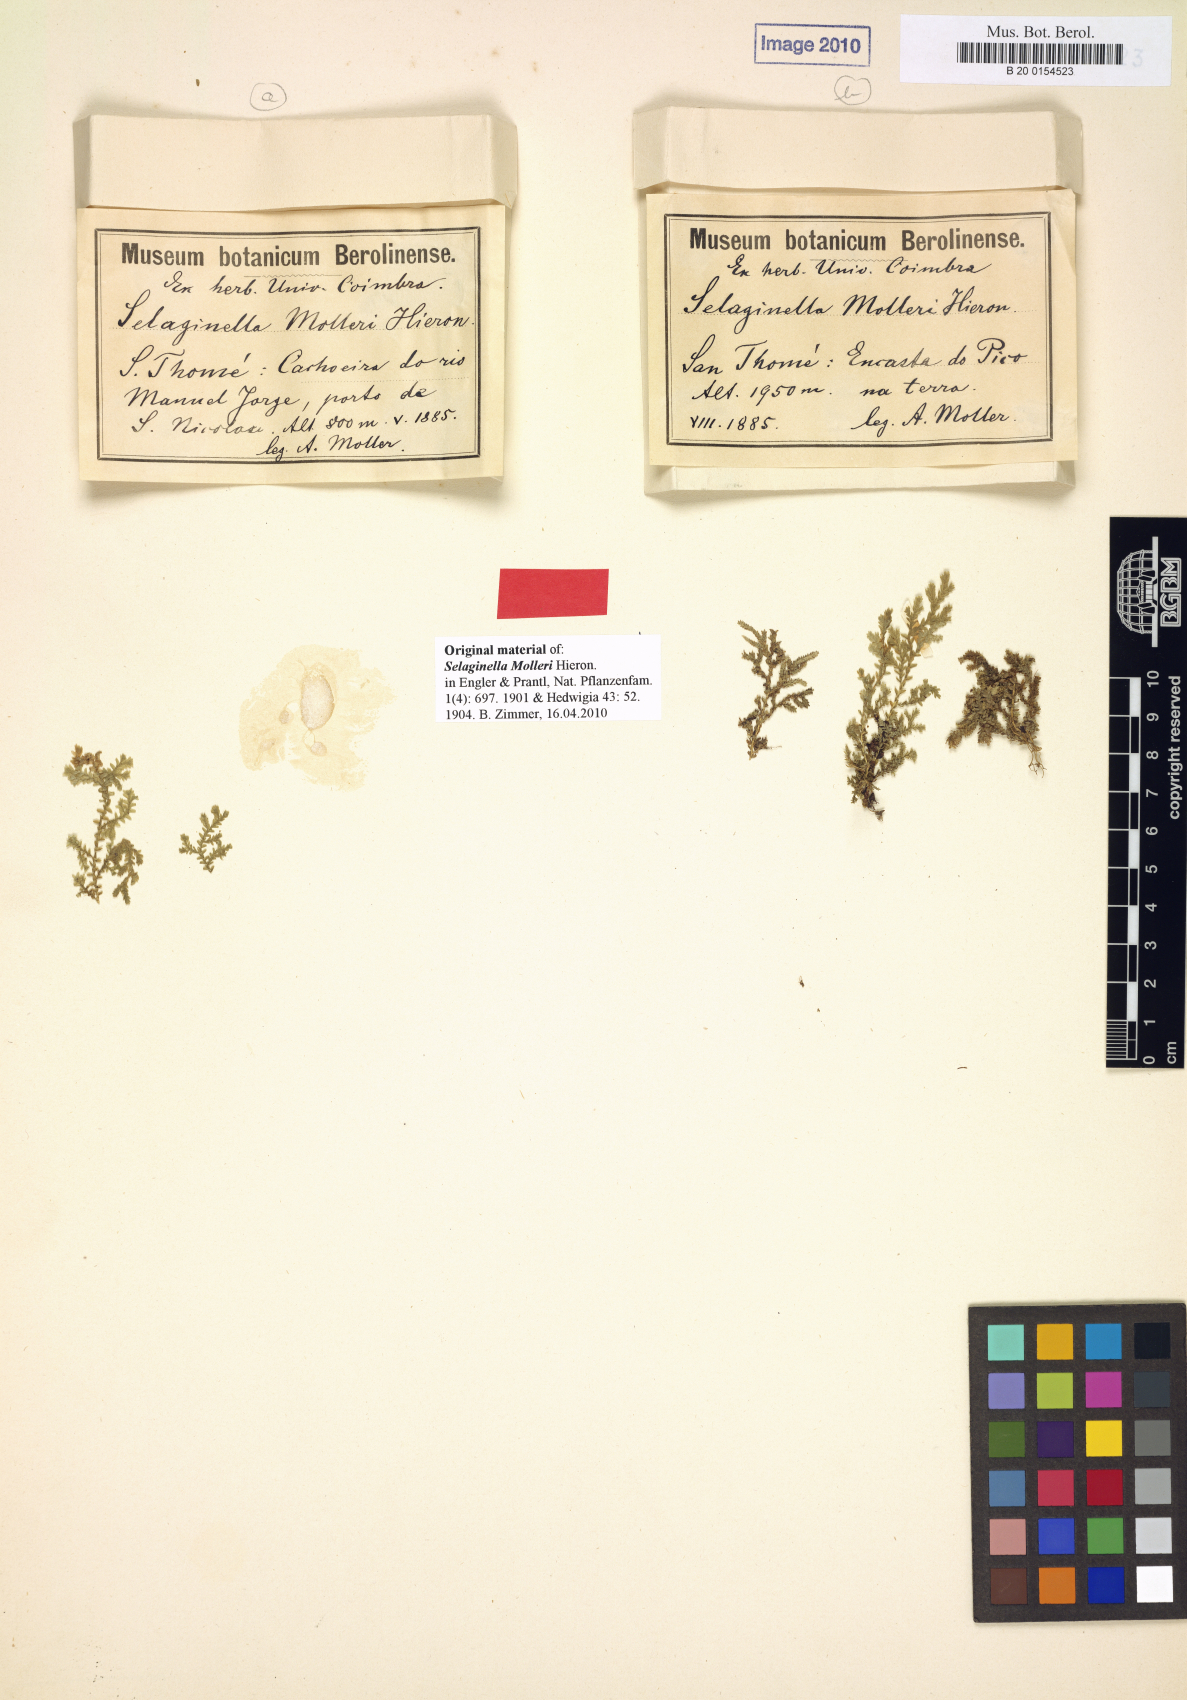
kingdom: Plantae
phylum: Tracheophyta
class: Lycopodiopsida
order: Selaginellales
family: Selaginellaceae
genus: Selaginella
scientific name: Selaginella molleri
